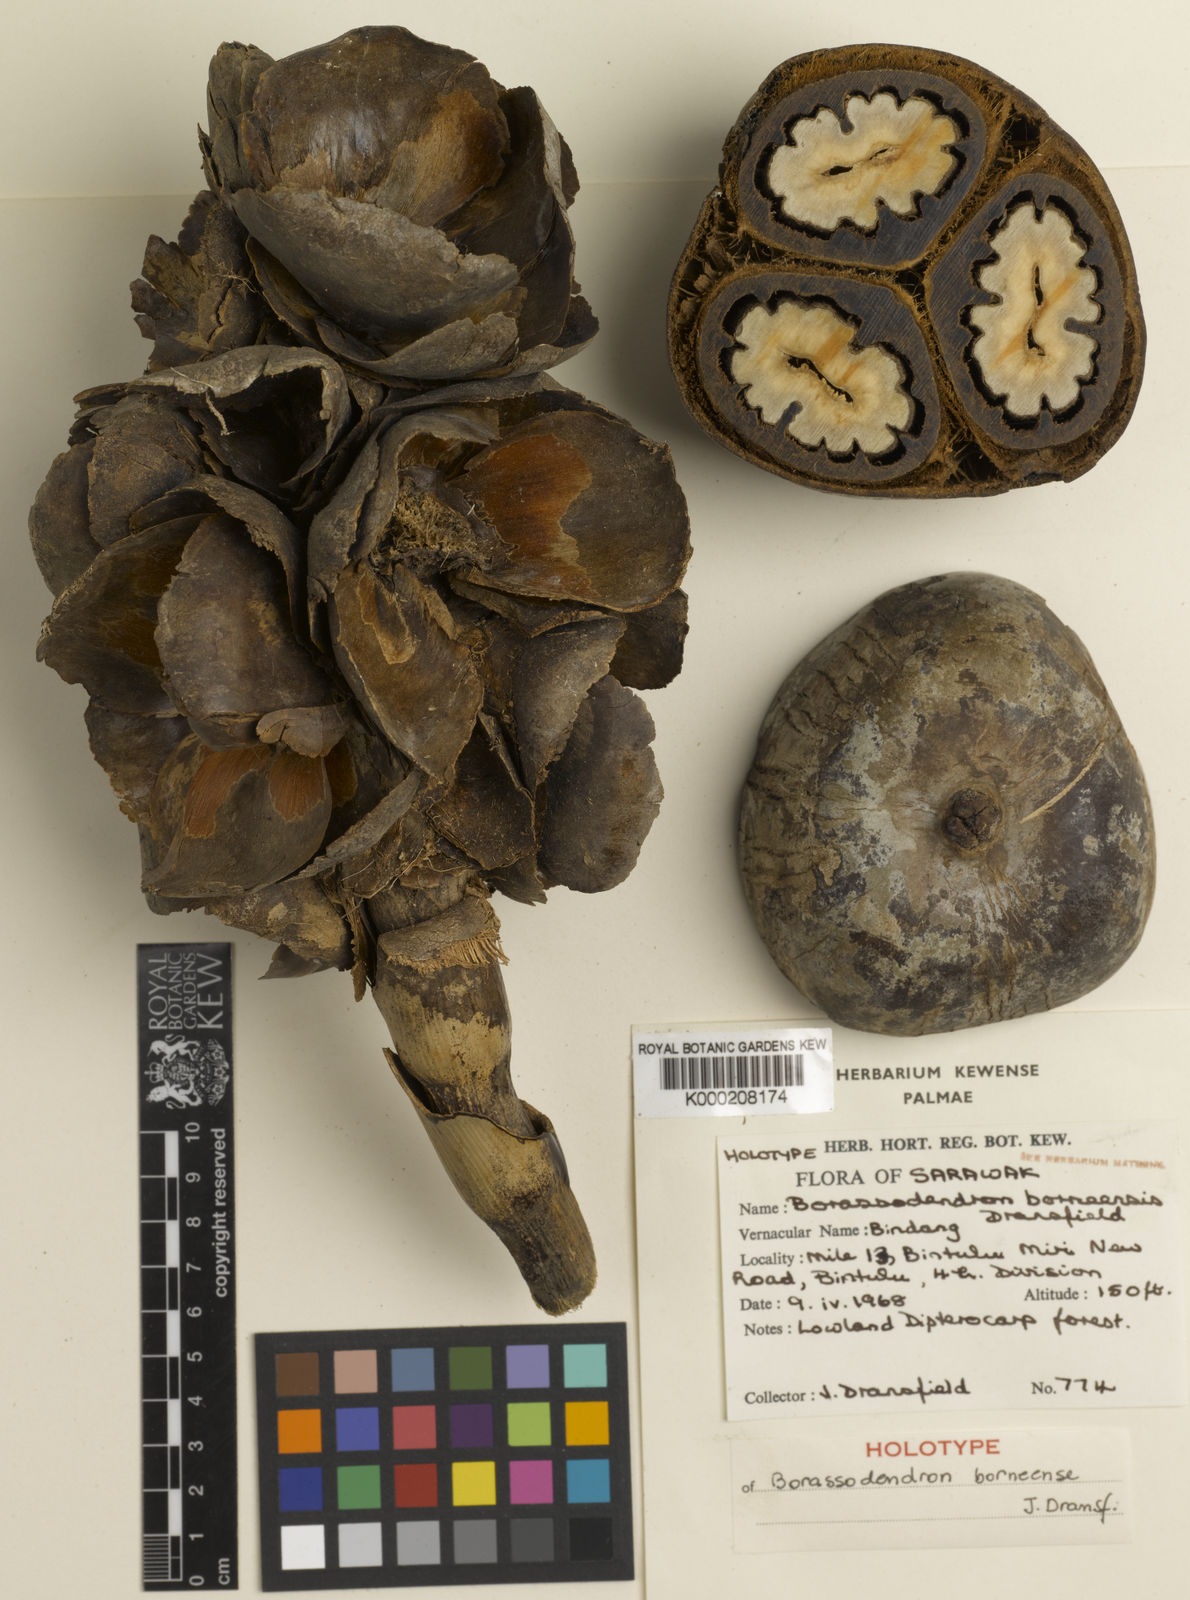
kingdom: Plantae
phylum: Tracheophyta
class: Liliopsida
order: Arecales
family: Arecaceae
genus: Borassodendron
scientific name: Borassodendron borneense
